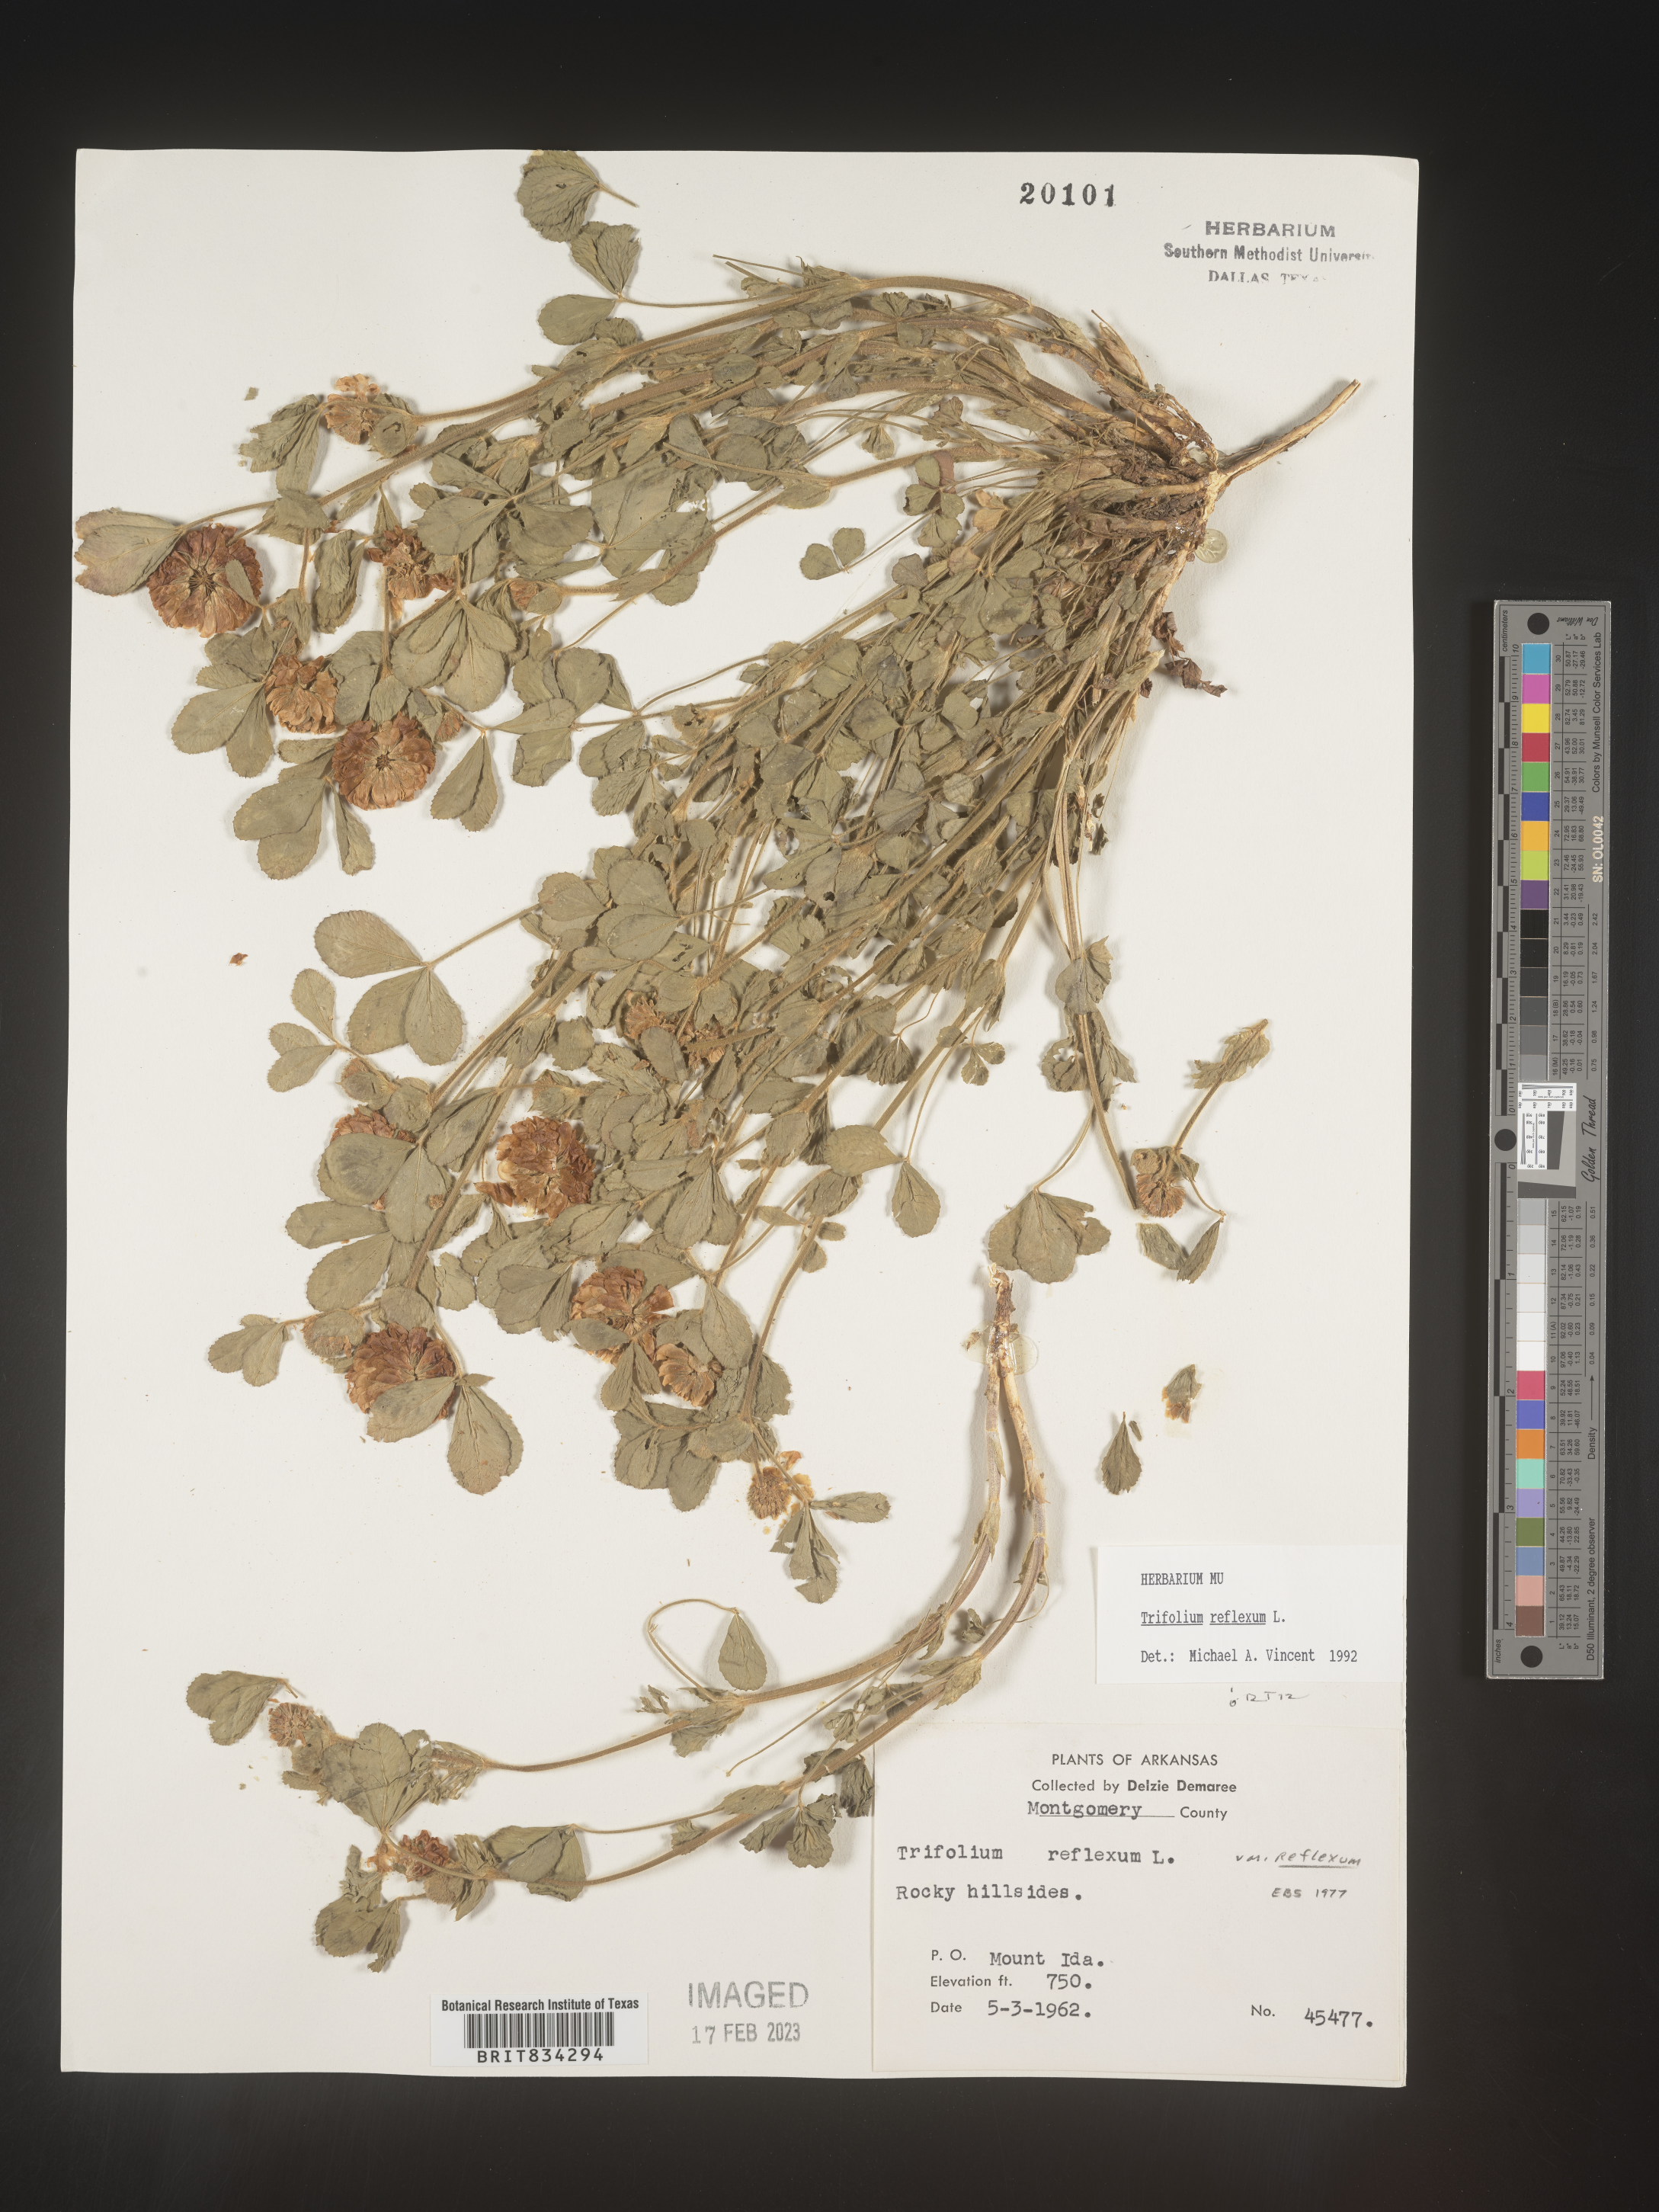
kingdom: Plantae
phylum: Tracheophyta
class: Magnoliopsida
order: Fabales
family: Fabaceae
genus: Trifolium
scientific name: Trifolium reflexum
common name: Buffalo clover
